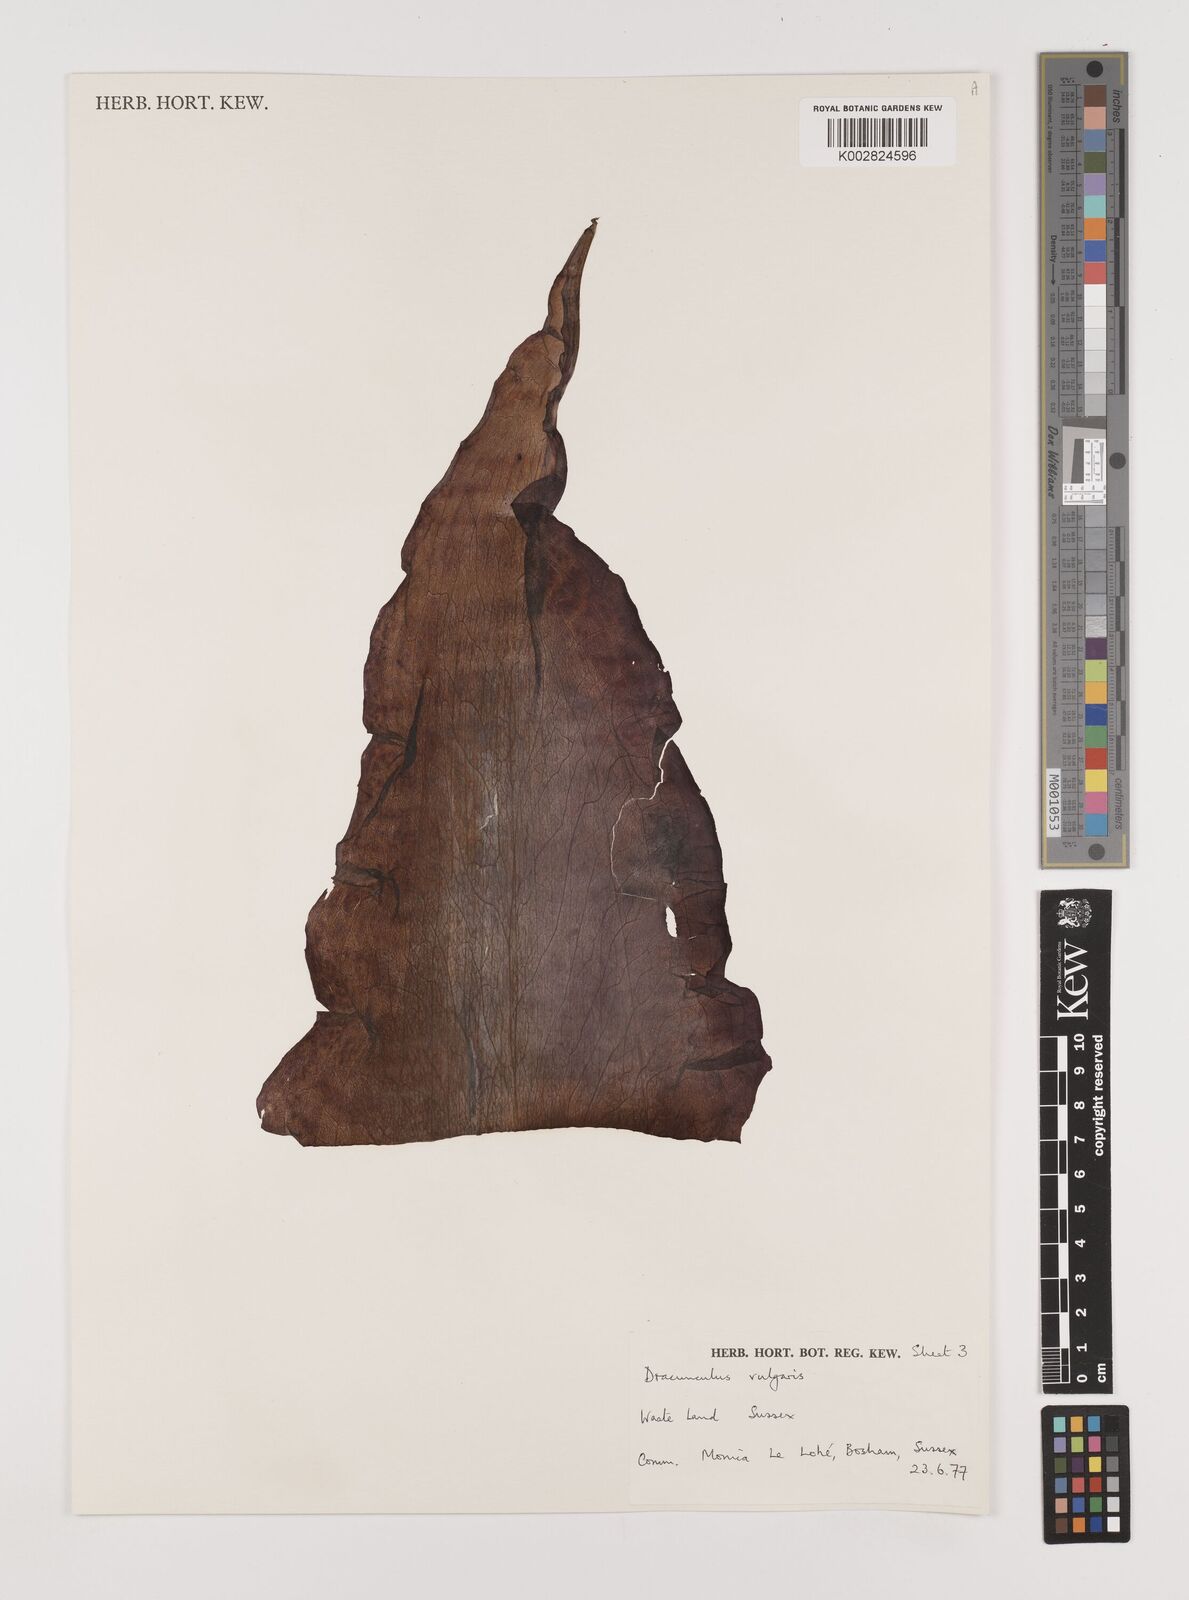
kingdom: Plantae
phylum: Tracheophyta
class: Liliopsida
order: Alismatales
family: Araceae
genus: Dracunculus
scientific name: Dracunculus vulgaris
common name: Dragon arum
